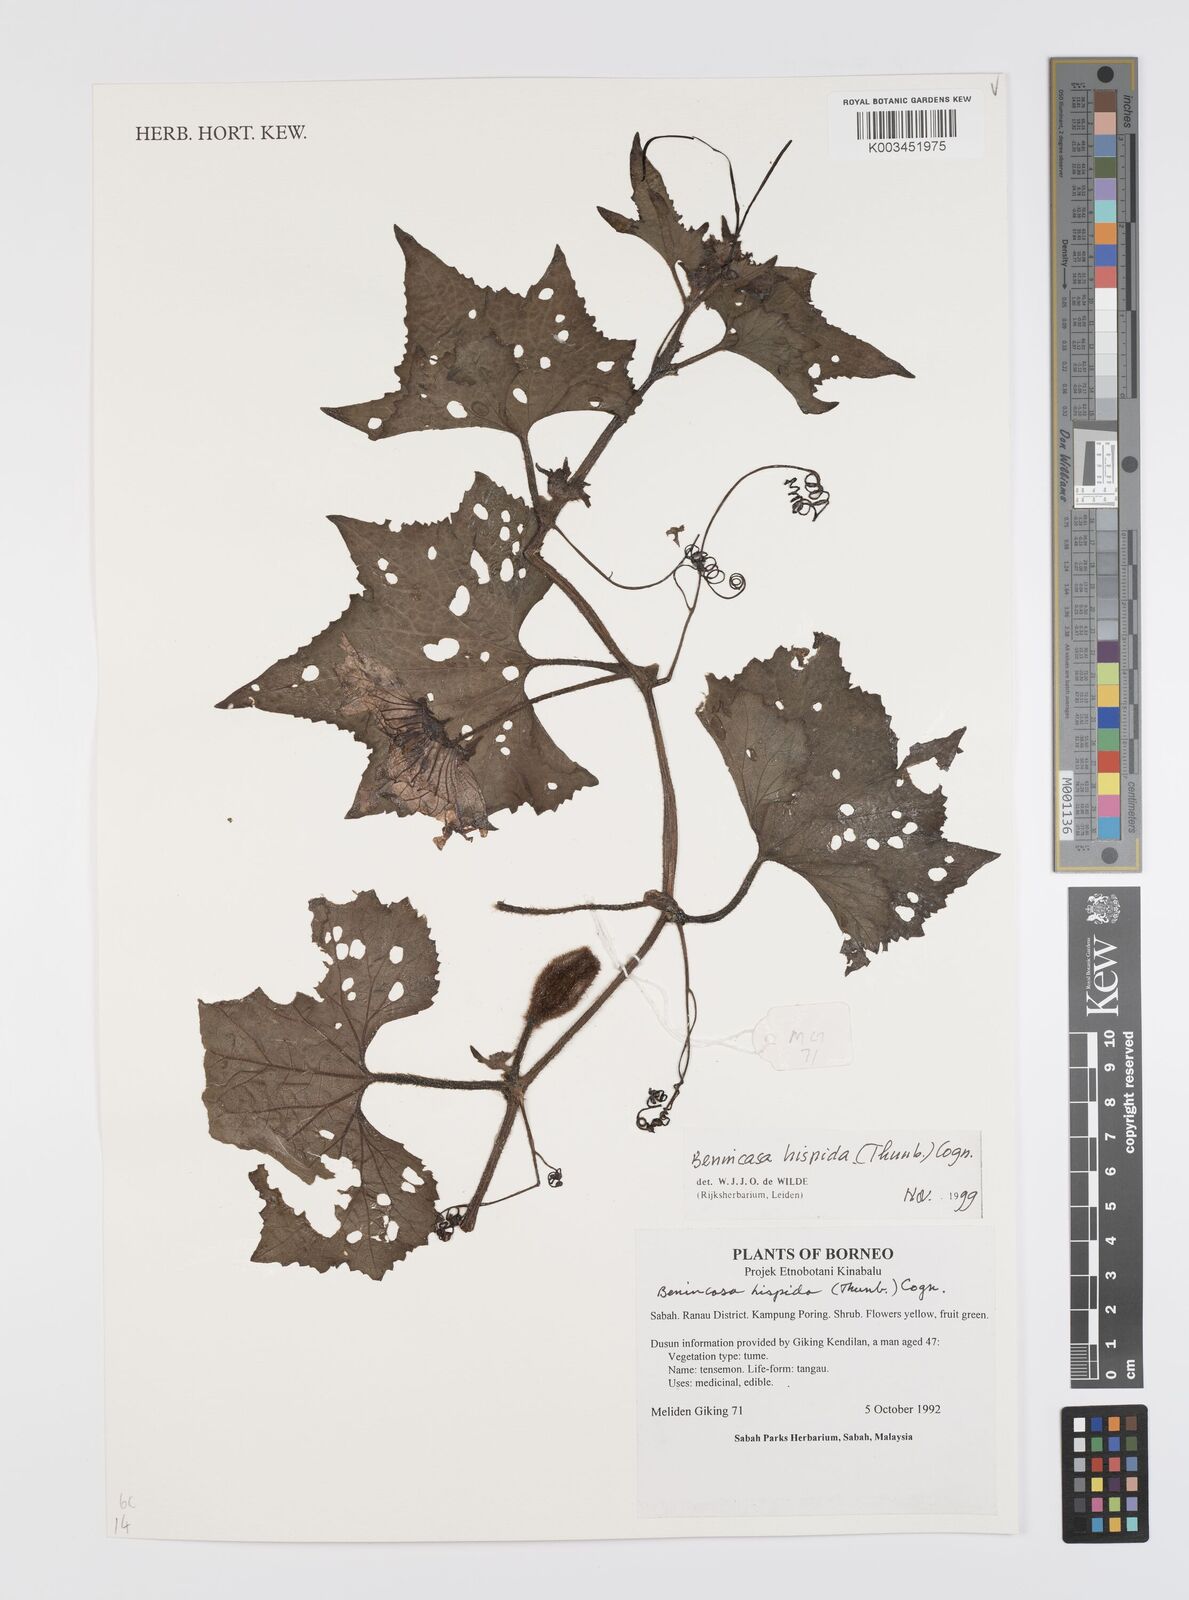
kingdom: Plantae
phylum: Tracheophyta
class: Magnoliopsida
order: Cucurbitales
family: Cucurbitaceae
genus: Benincasa
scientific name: Benincasa hispida
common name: Chinese-watermelon
